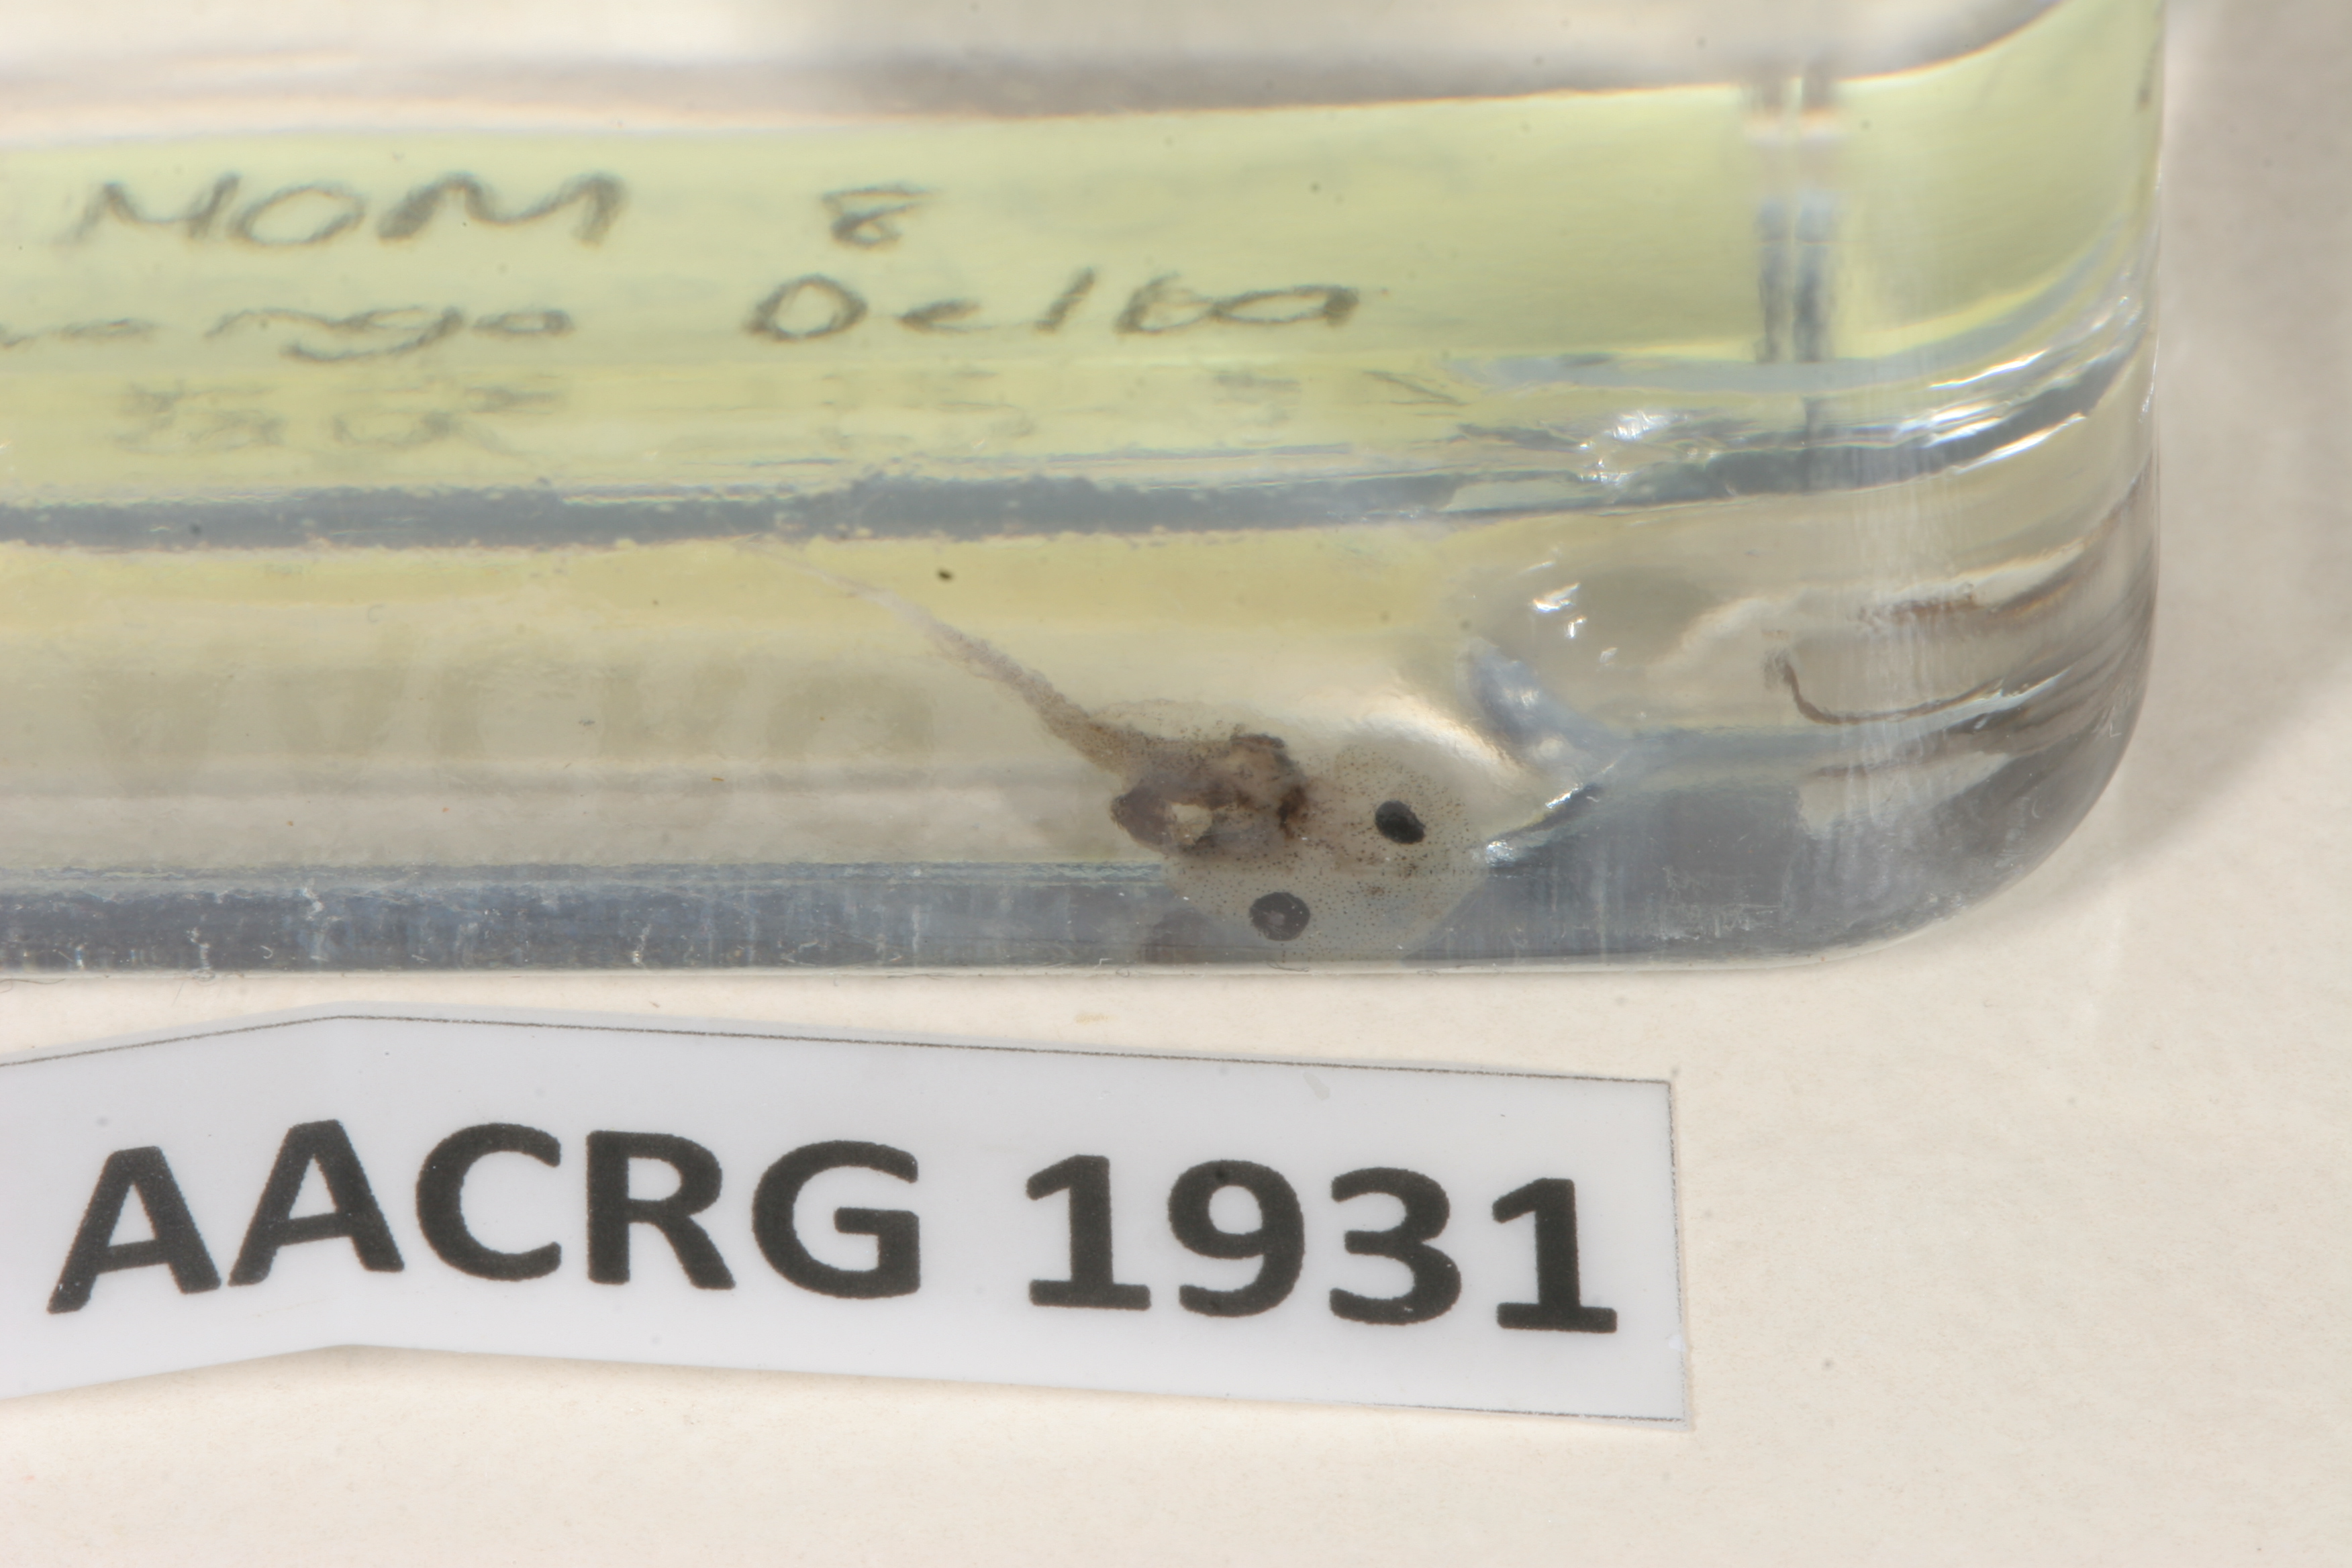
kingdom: Animalia
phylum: Chordata
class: Amphibia
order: Anura
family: Microhylidae
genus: Phrynomantis
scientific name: Phrynomantis bifasciatus
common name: Banded rubber frog
